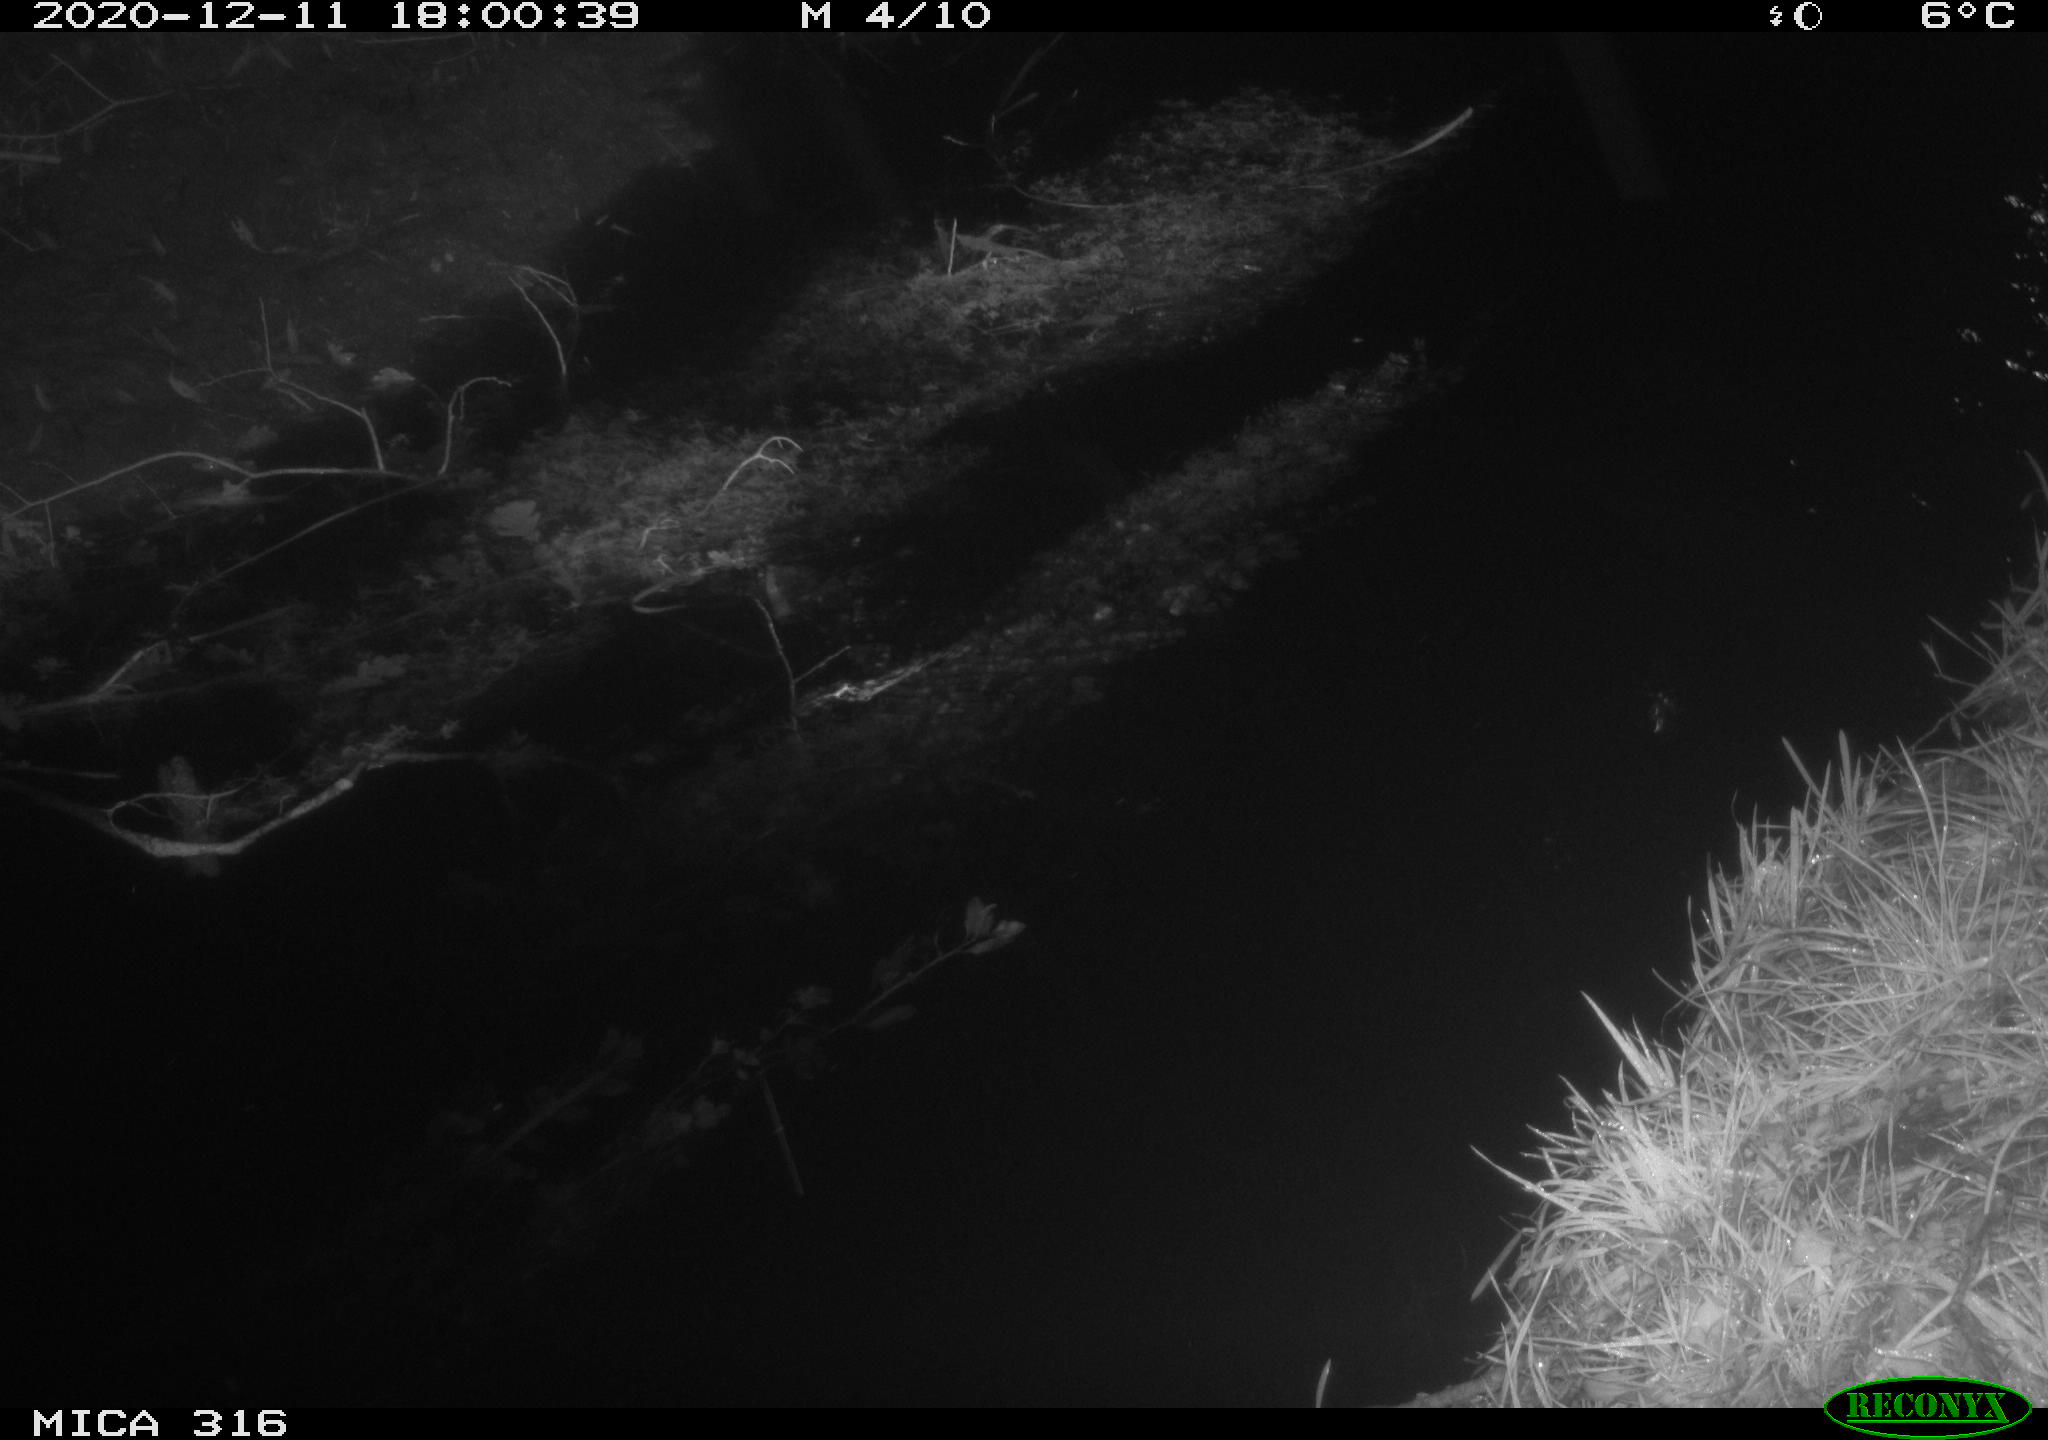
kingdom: Animalia
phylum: Chordata
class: Mammalia
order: Rodentia
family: Muridae
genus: Rattus
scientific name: Rattus norvegicus
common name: Brown rat
